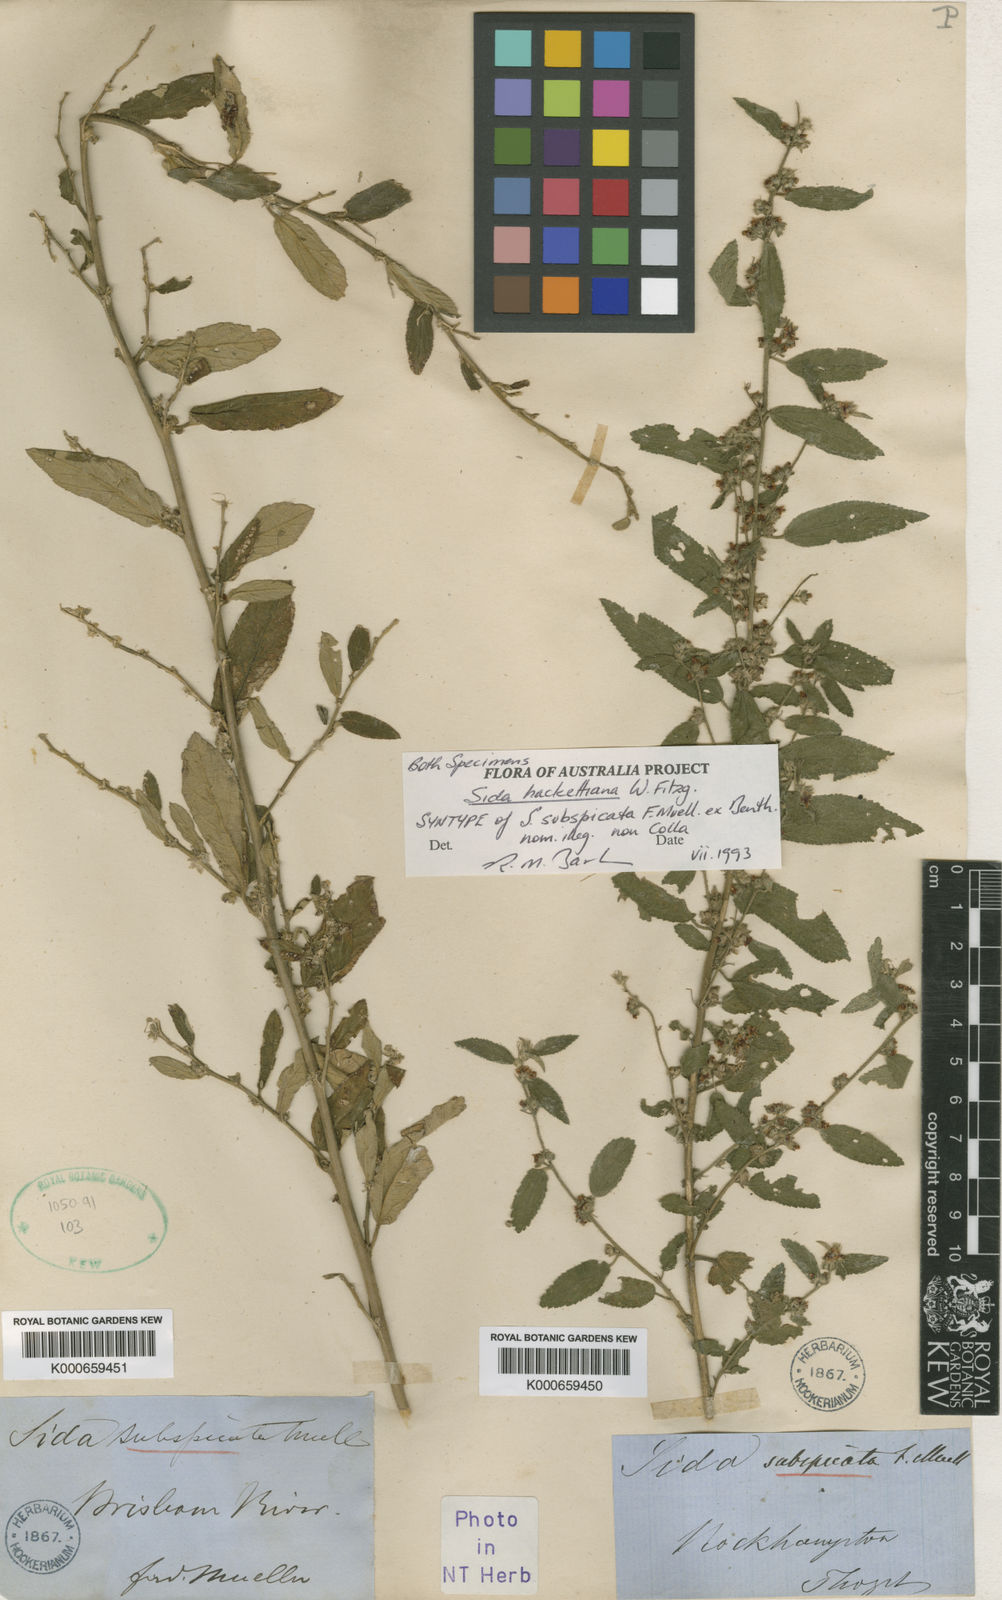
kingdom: Plantae
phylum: Tracheophyta
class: Magnoliopsida
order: Malvales
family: Malvaceae
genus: Sida
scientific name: Sida hackettiana
